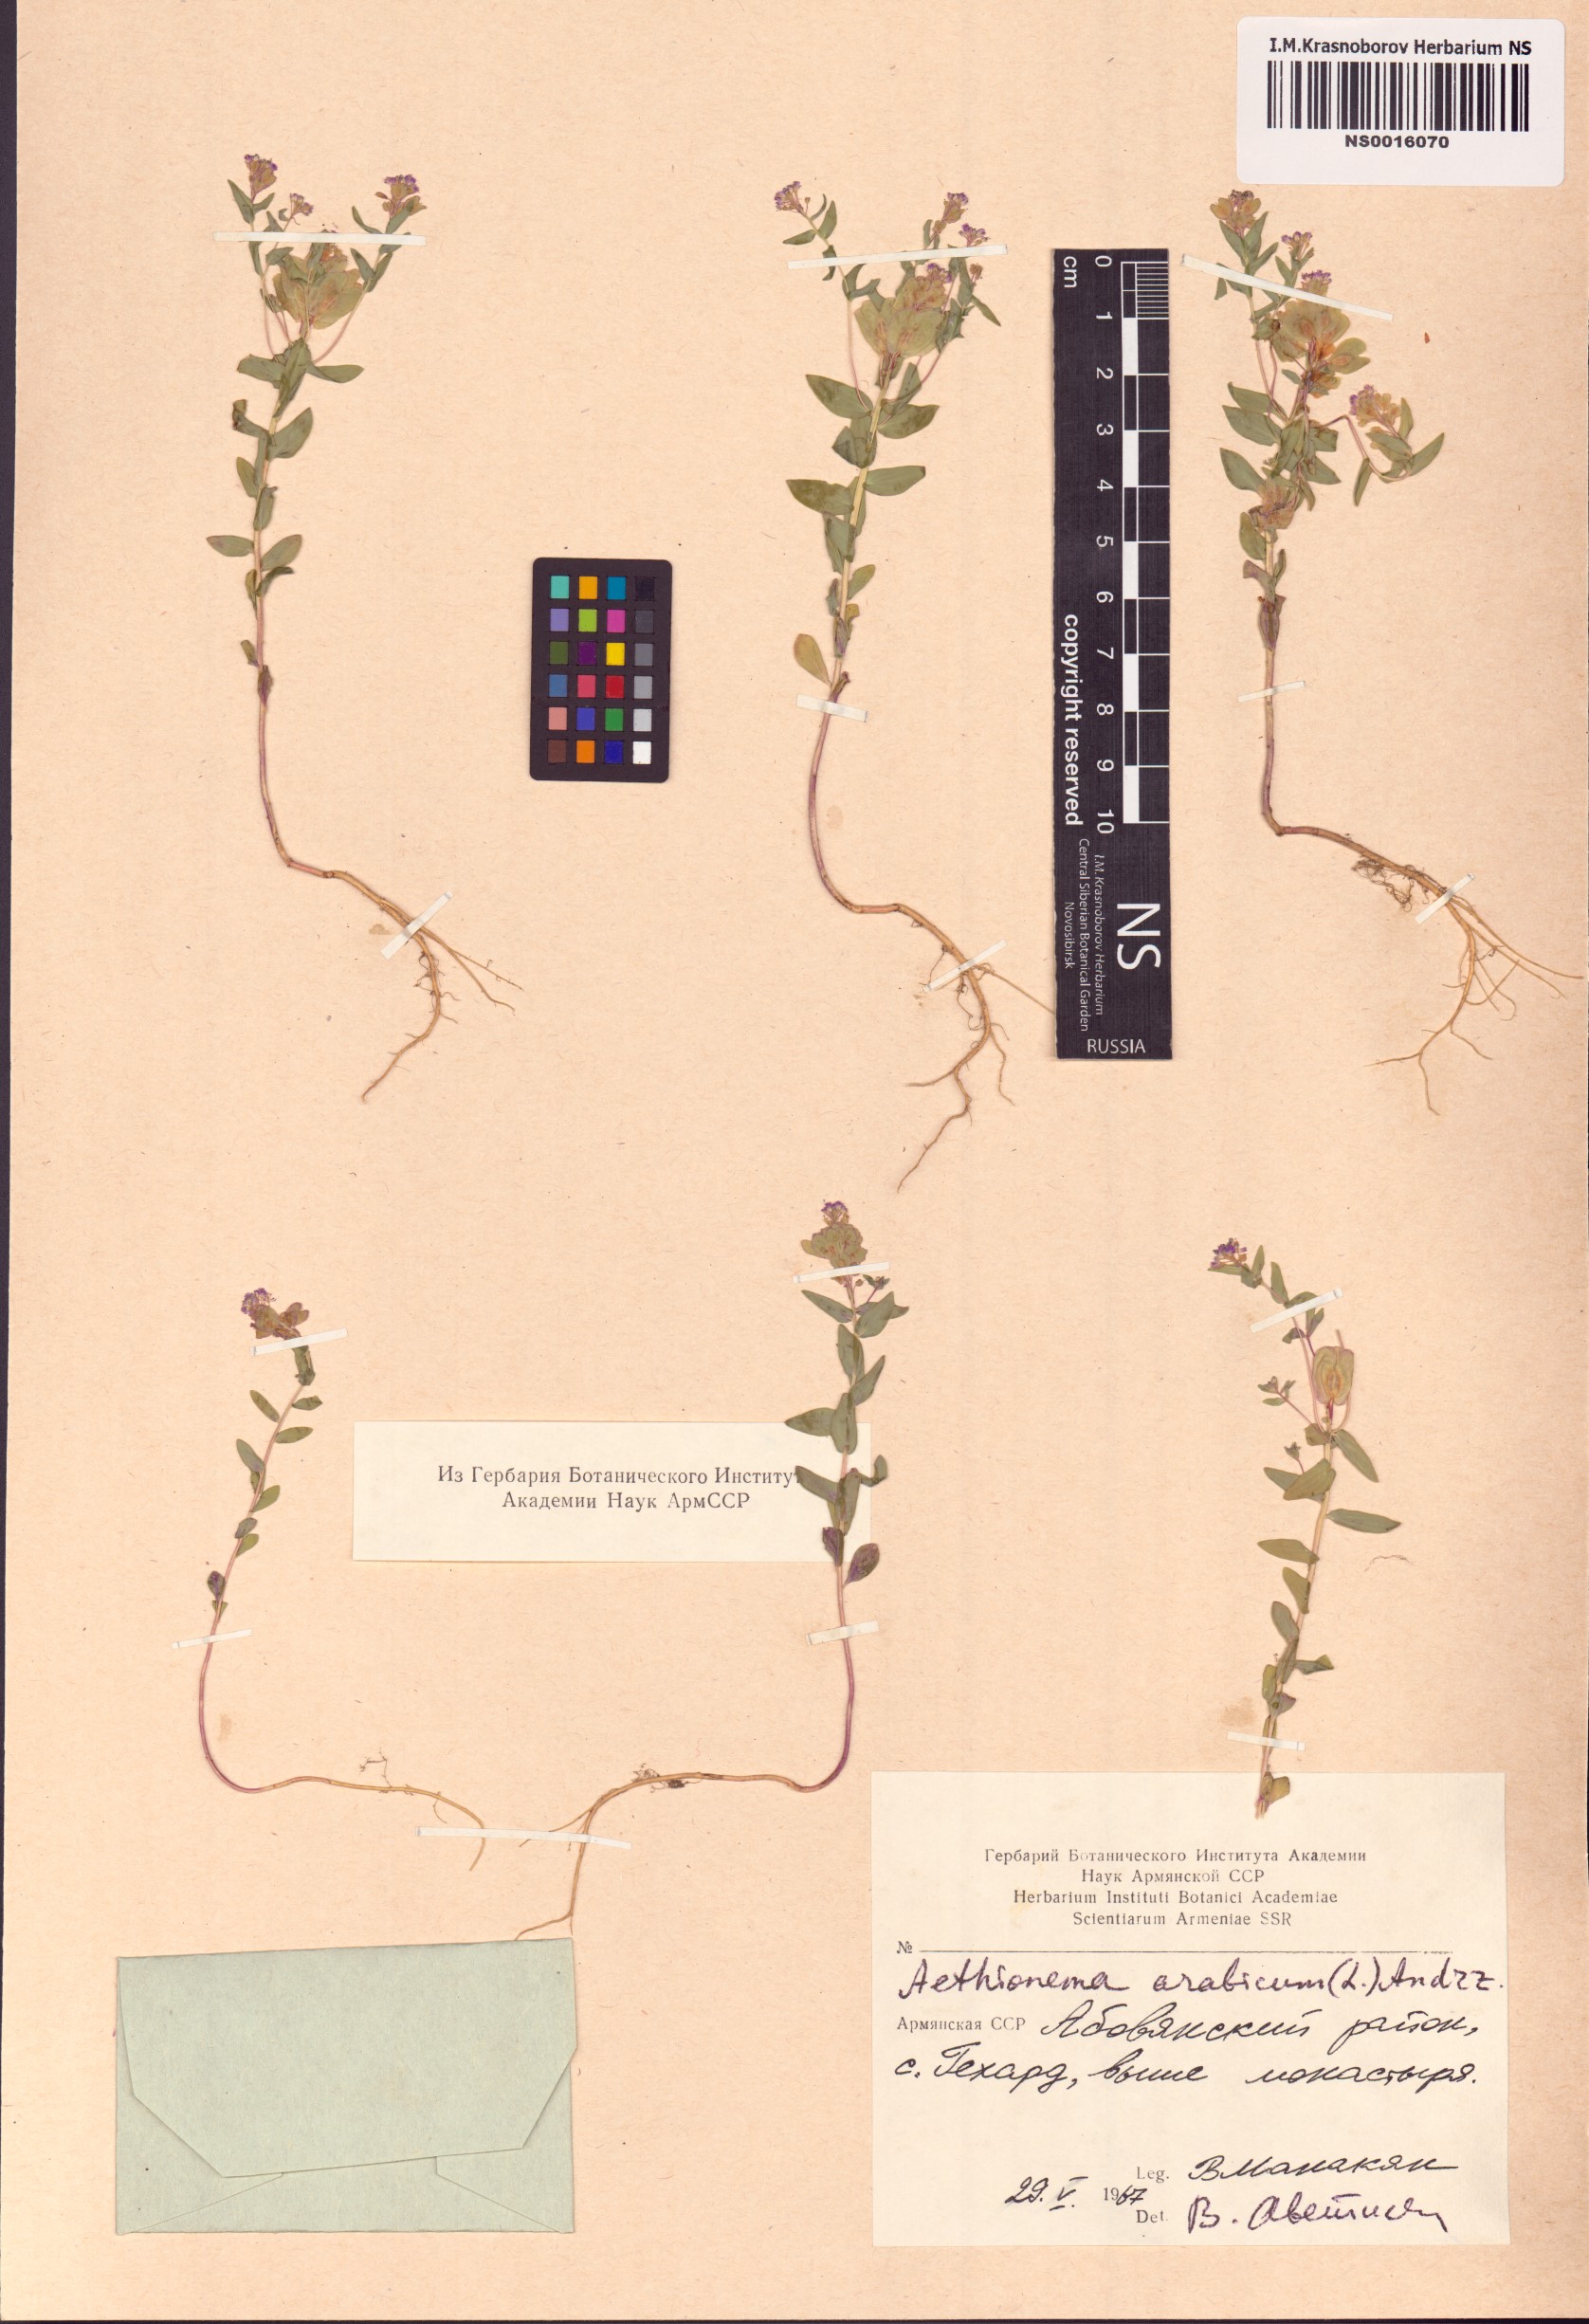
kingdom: Plantae
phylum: Tracheophyta
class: Magnoliopsida
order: Brassicales
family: Brassicaceae
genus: Aethionema
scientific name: Aethionema arabicum
